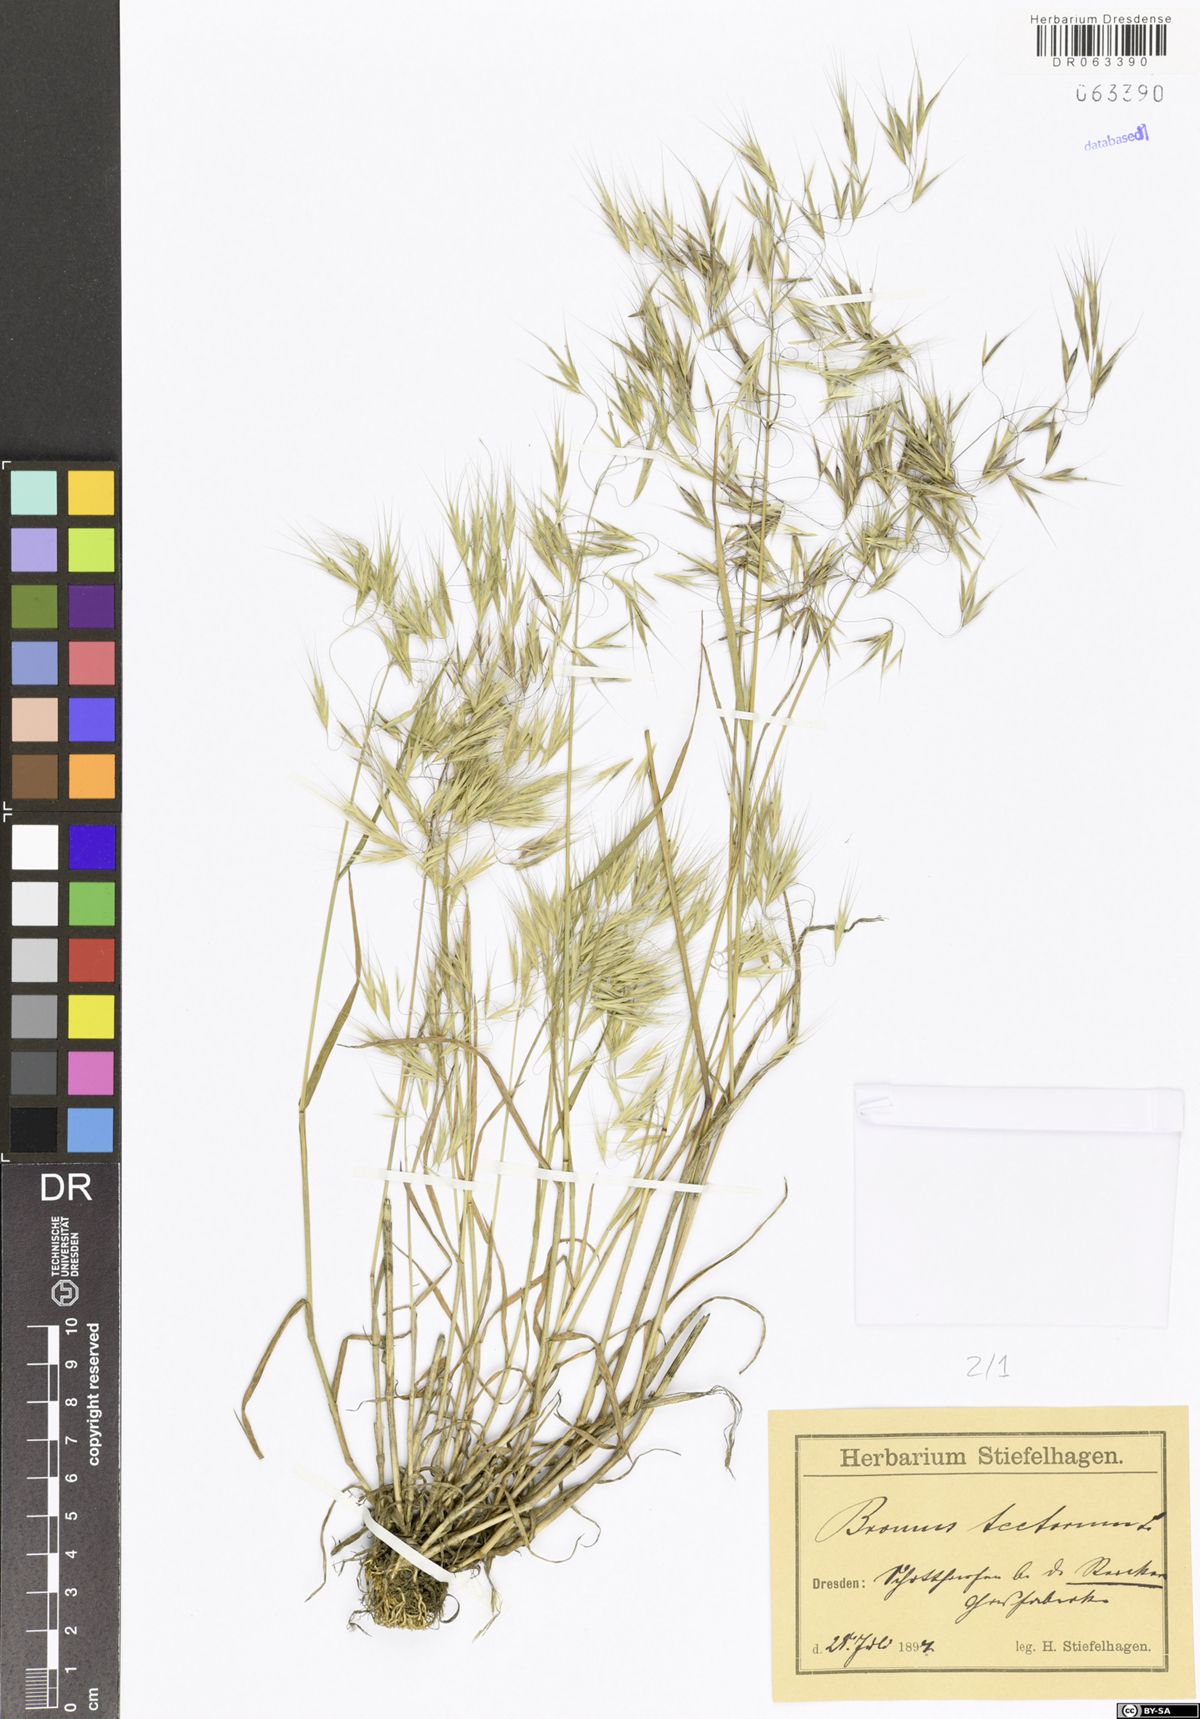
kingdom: Plantae
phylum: Tracheophyta
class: Liliopsida
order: Poales
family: Poaceae
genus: Bromus
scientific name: Bromus tectorum
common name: Cheatgrass
